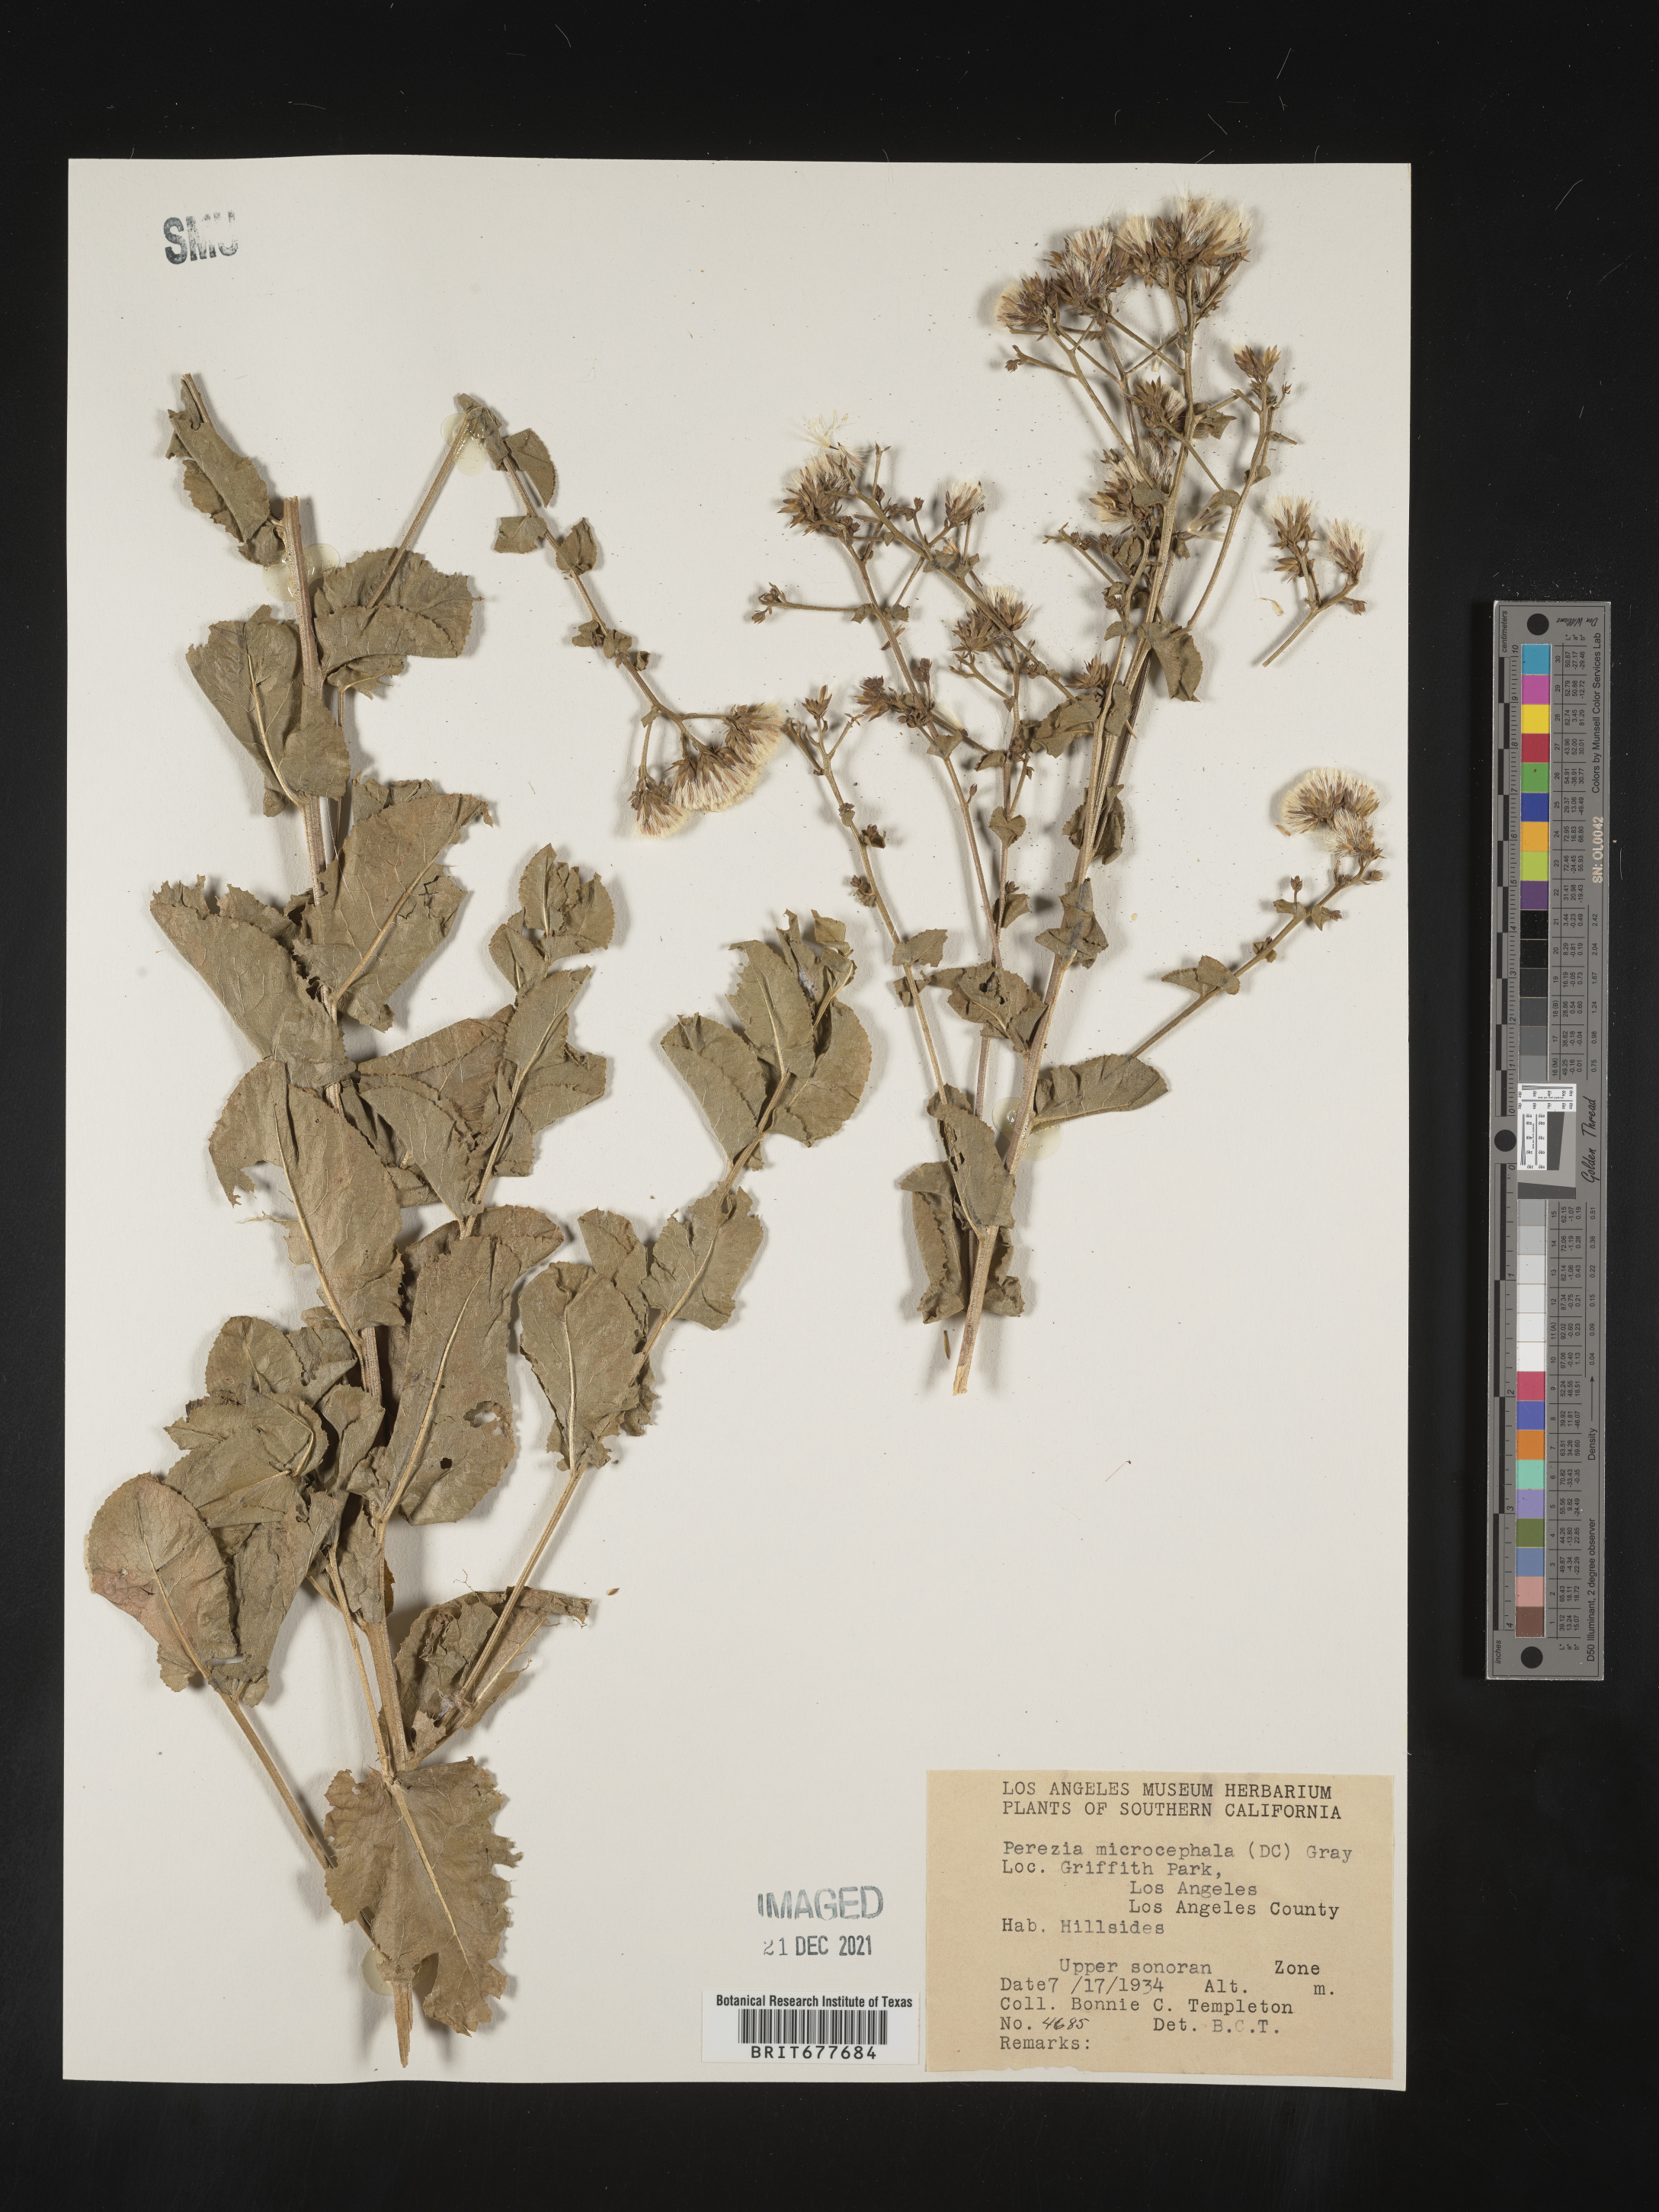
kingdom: Plantae
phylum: Tracheophyta
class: Magnoliopsida
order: Asterales
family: Asteraceae
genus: Perezia
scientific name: Perezia
